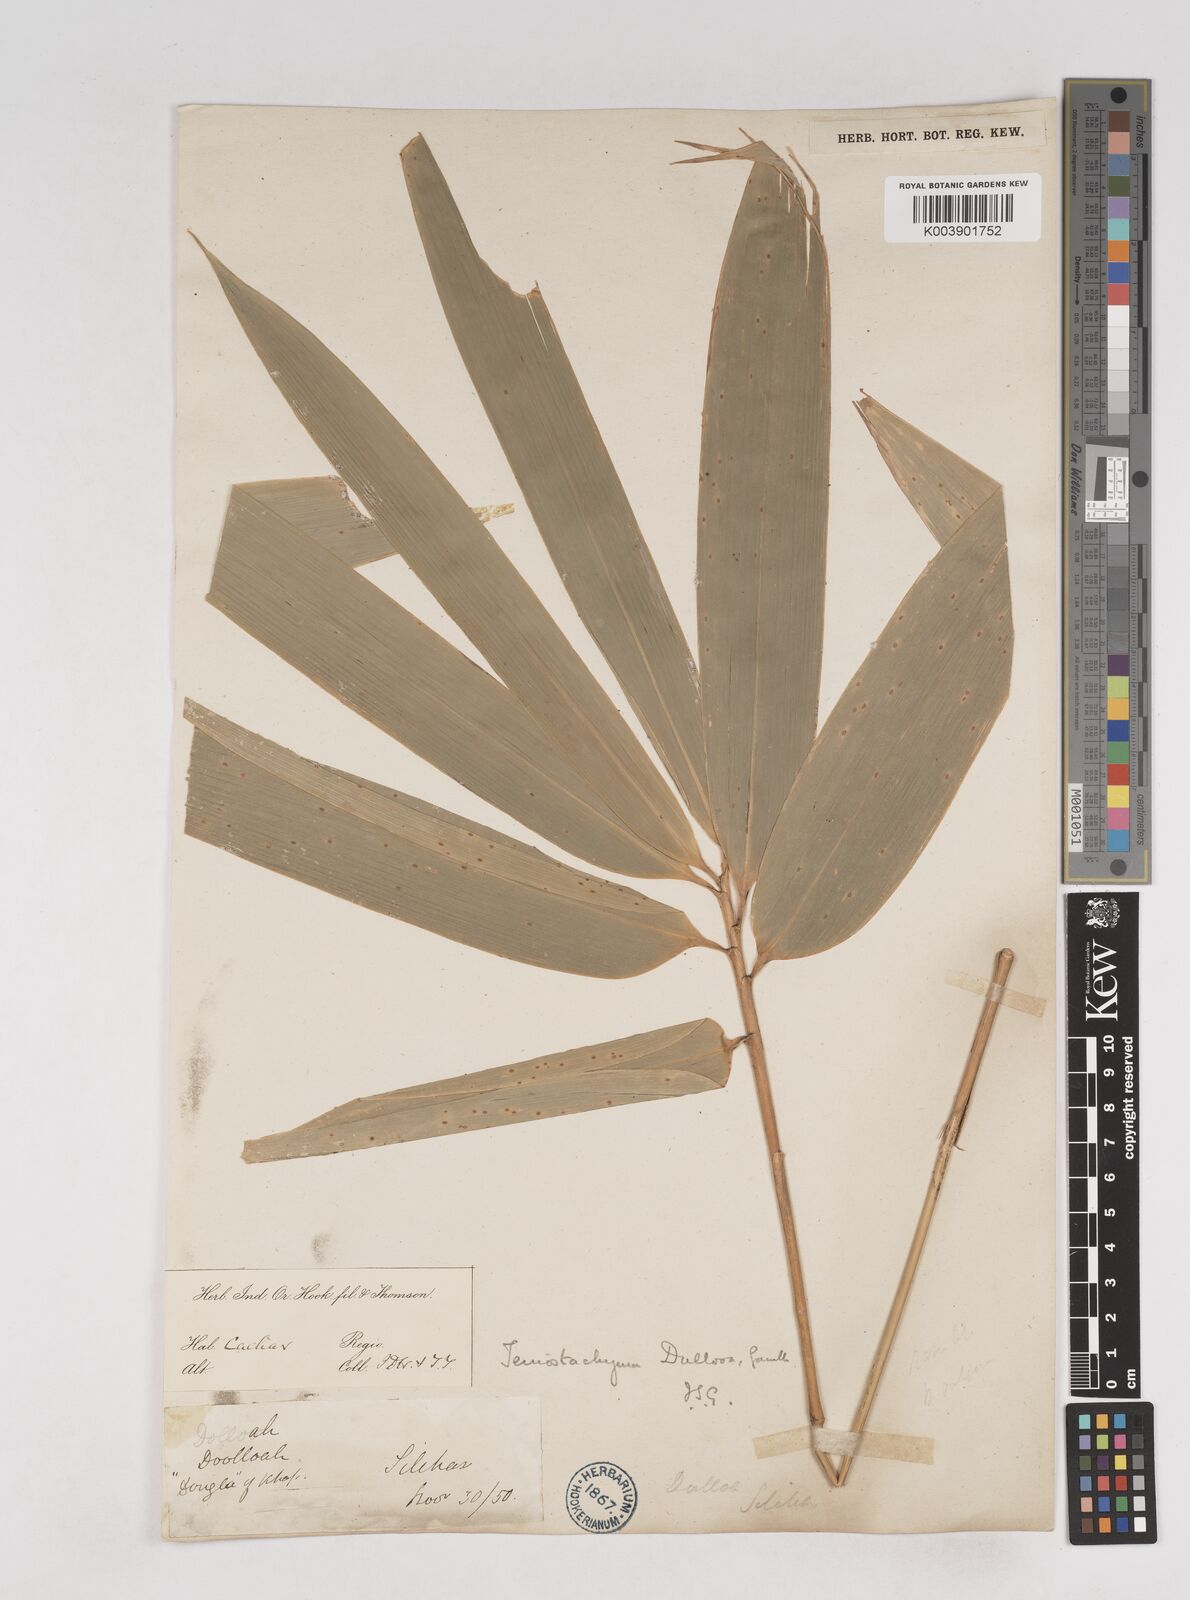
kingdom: Plantae
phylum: Tracheophyta
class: Liliopsida
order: Poales
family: Poaceae
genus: Schizostachyum
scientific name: Schizostachyum dullooa
